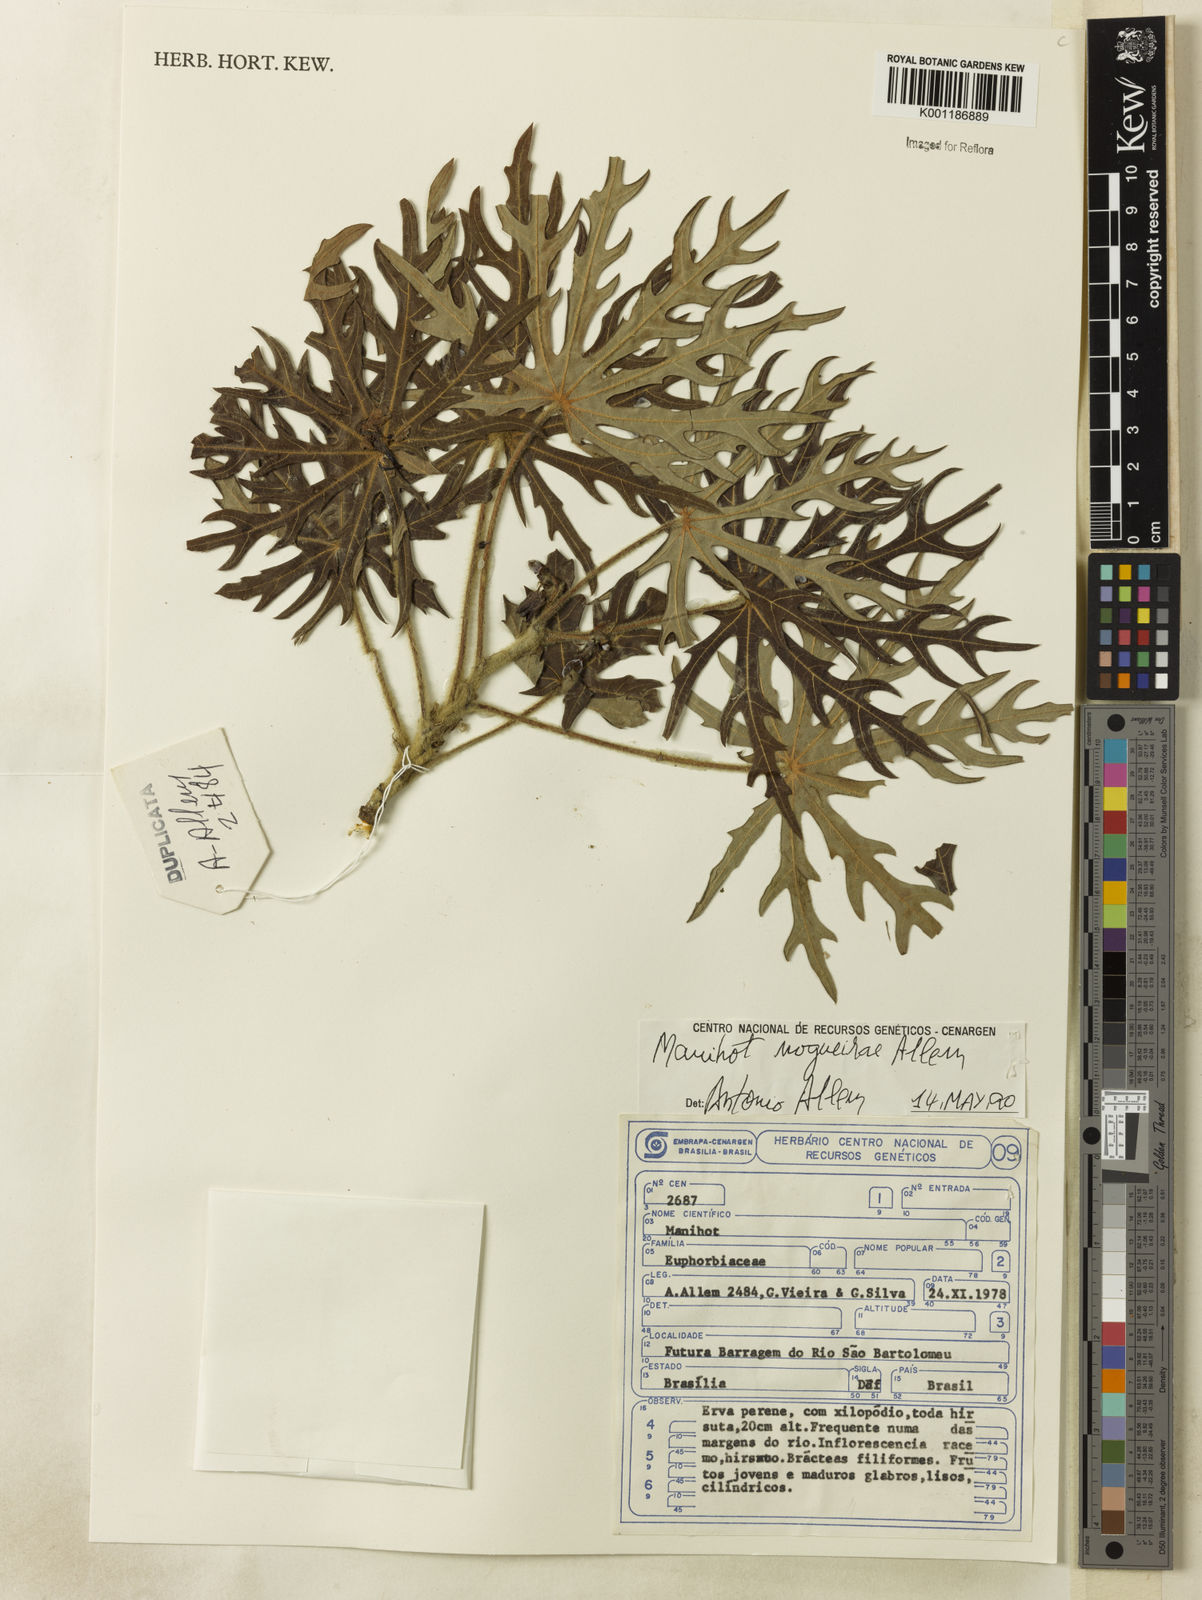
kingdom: Plantae
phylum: Tracheophyta
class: Magnoliopsida
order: Malpighiales
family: Euphorbiaceae
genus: Manihot
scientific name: Manihot nogueirae
